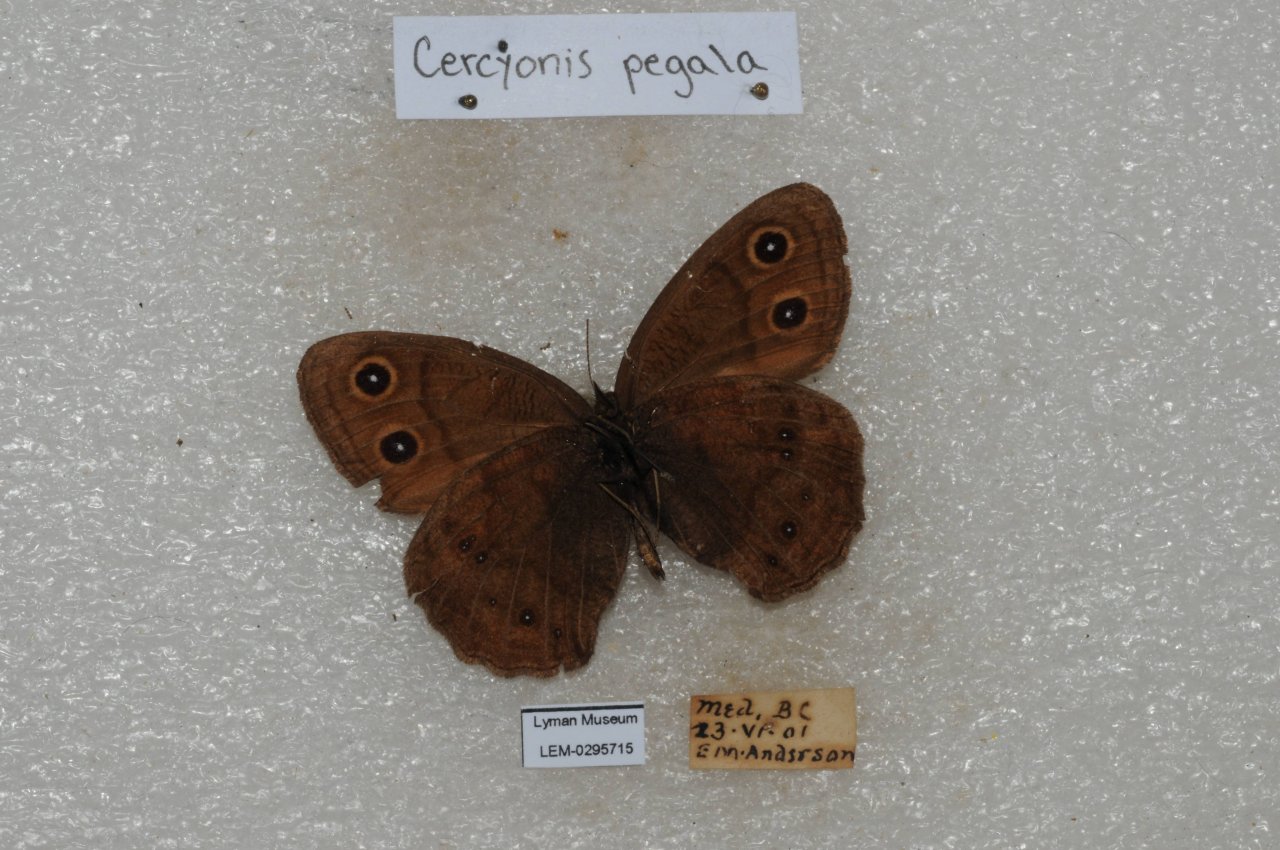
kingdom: Animalia
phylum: Arthropoda
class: Insecta
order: Lepidoptera
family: Nymphalidae
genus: Cercyonis
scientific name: Cercyonis pegala
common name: Common Wood-Nymph
